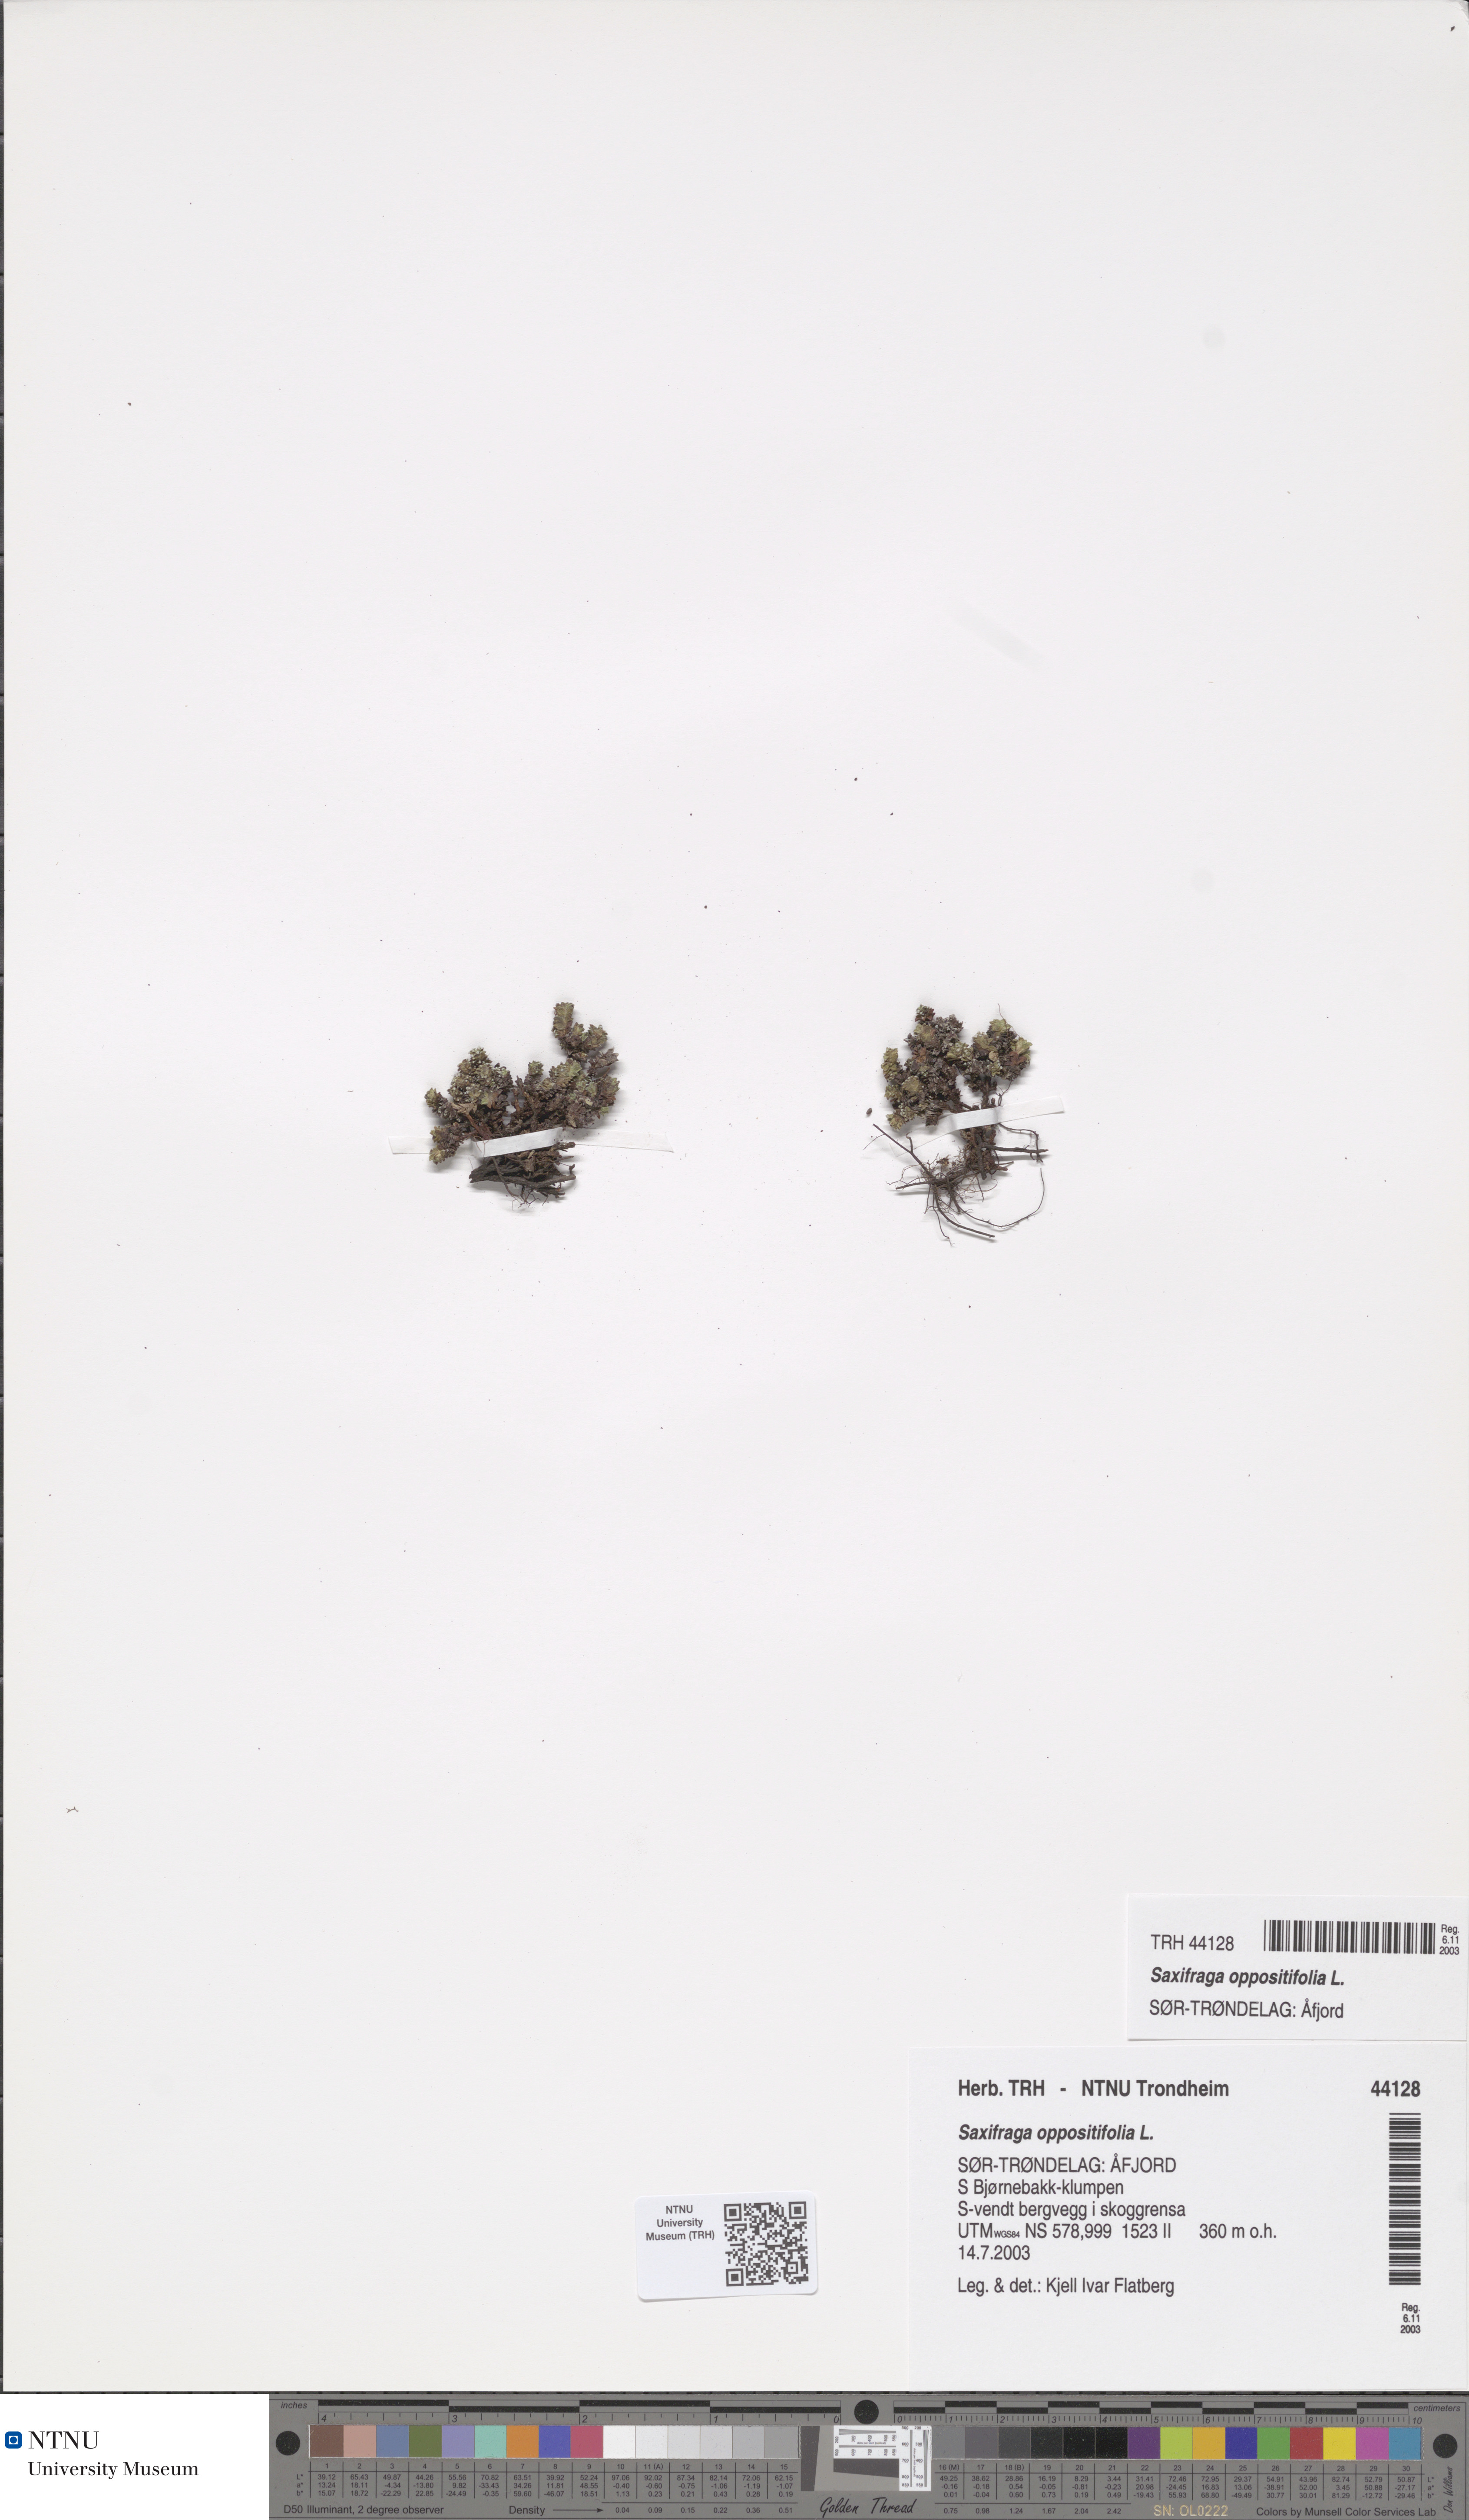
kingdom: Plantae
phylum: Tracheophyta
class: Magnoliopsida
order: Saxifragales
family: Saxifragaceae
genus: Saxifraga
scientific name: Saxifraga oppositifolia
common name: Purple saxifrage
